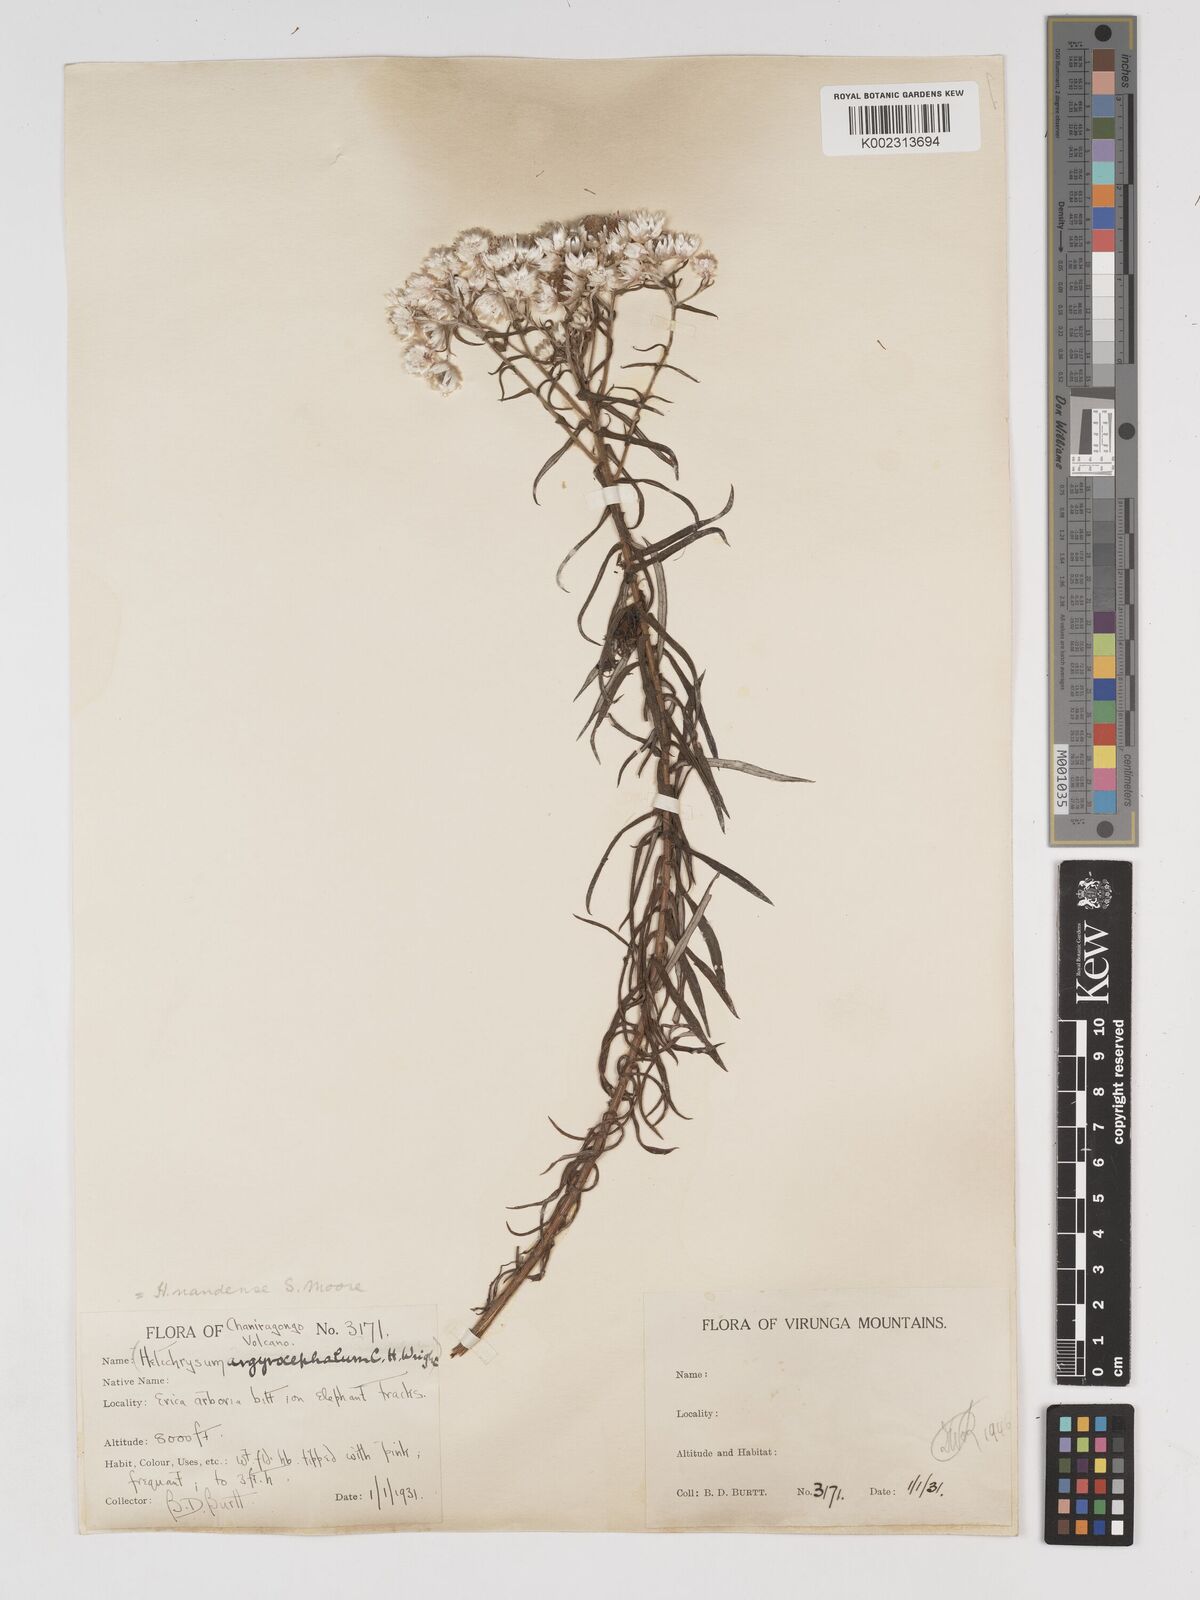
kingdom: Plantae
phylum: Tracheophyta
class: Magnoliopsida
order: Asterales
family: Asteraceae
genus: Helichrysum
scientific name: Helichrysum argyranthum
